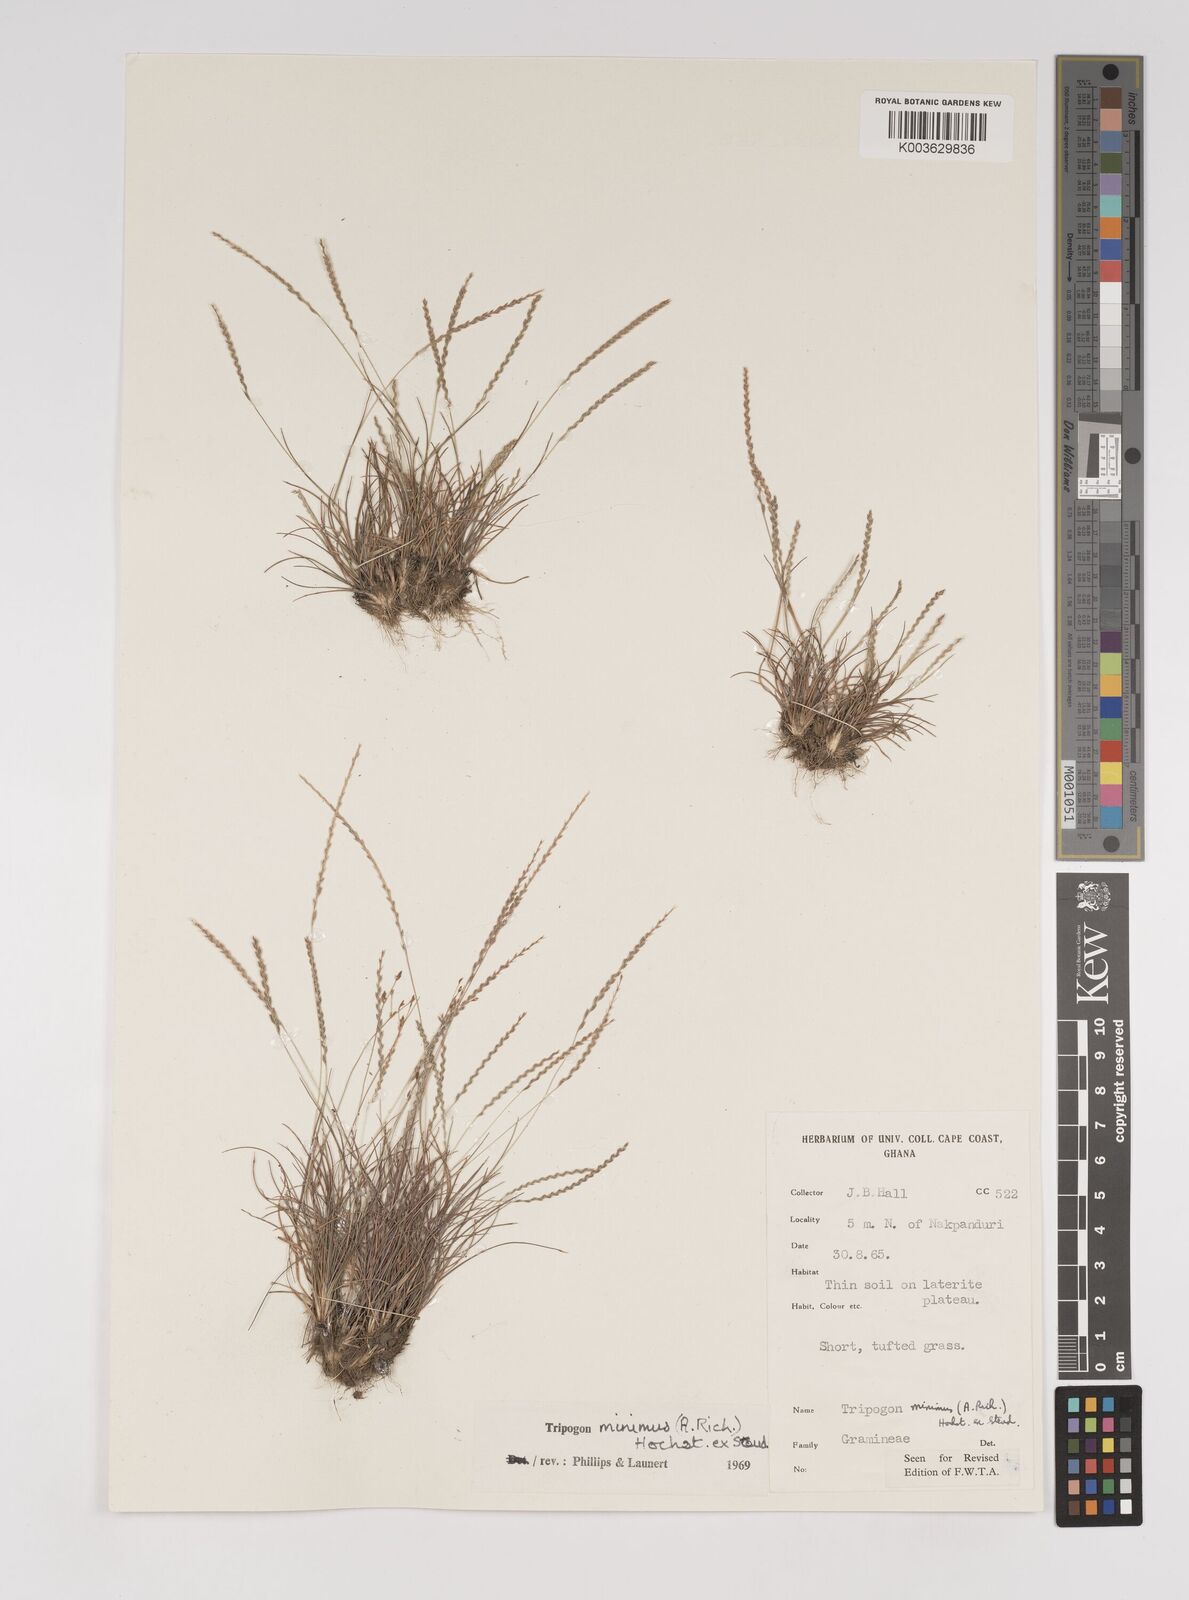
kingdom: Plantae
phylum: Tracheophyta
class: Liliopsida
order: Poales
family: Poaceae
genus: Tripogonella
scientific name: Tripogonella minima
